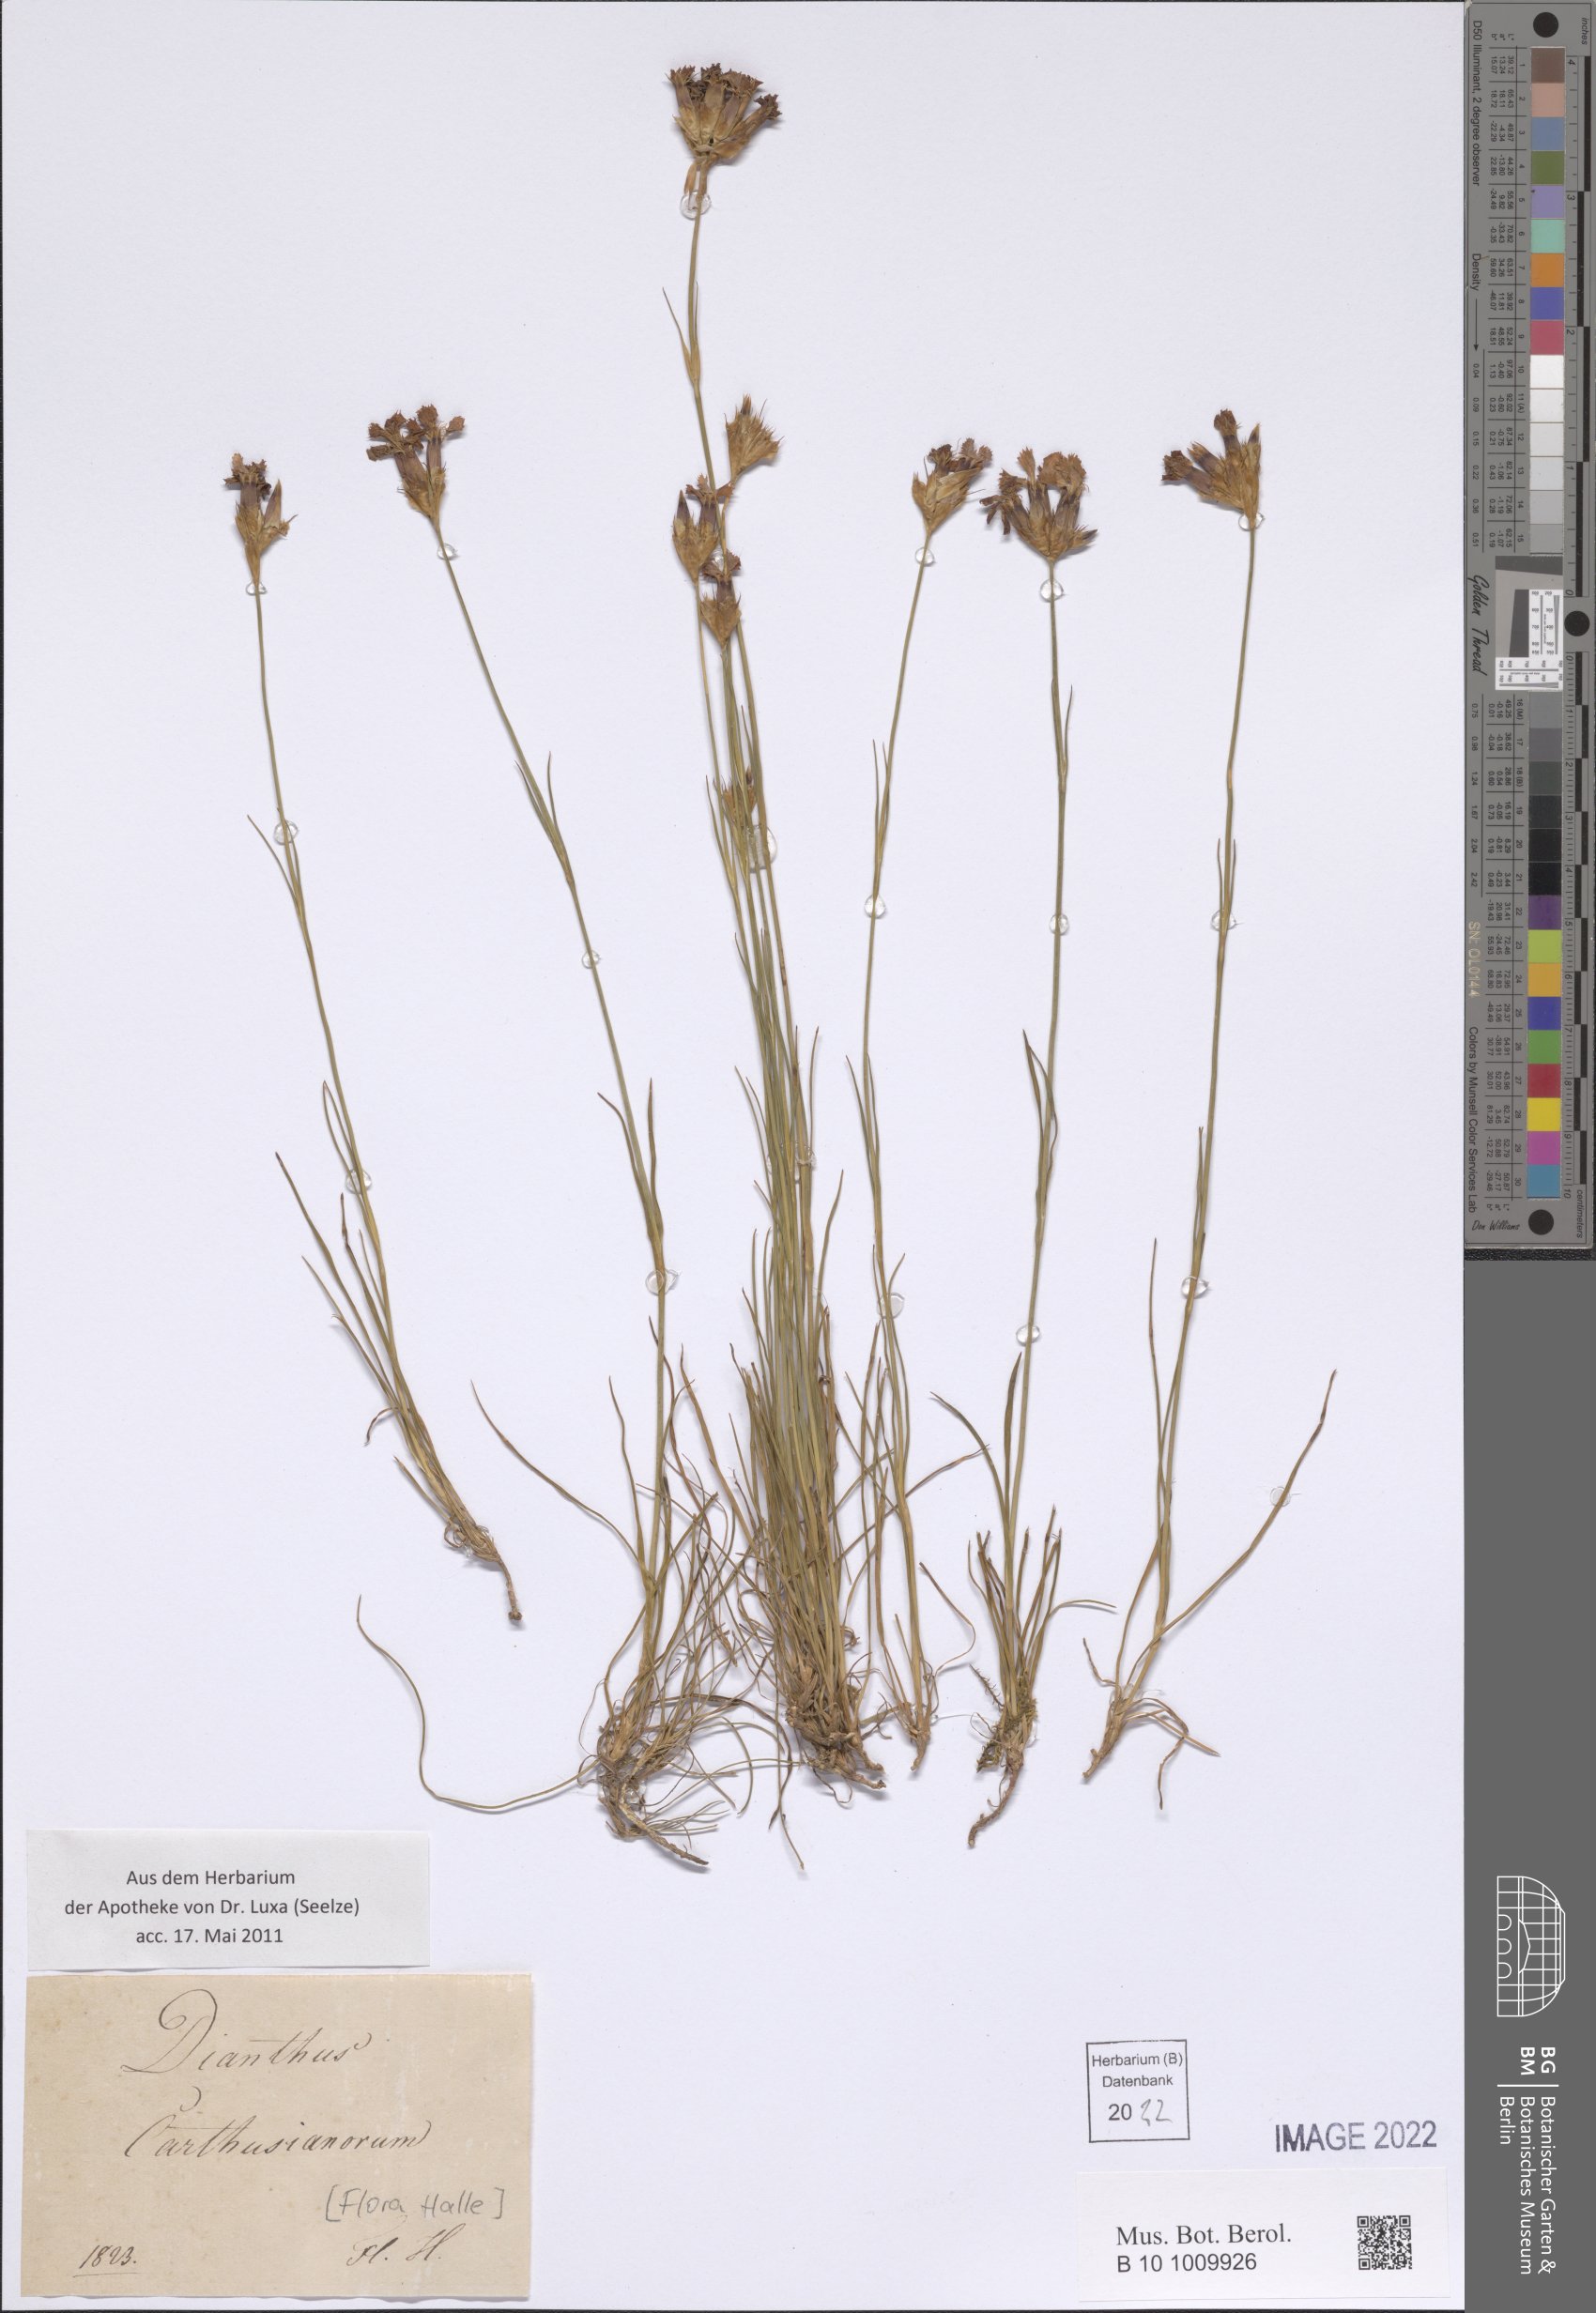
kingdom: Plantae
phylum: Tracheophyta
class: Magnoliopsida
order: Caryophyllales
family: Caryophyllaceae
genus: Dianthus
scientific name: Dianthus carthusianorum
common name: Carthusian pink
